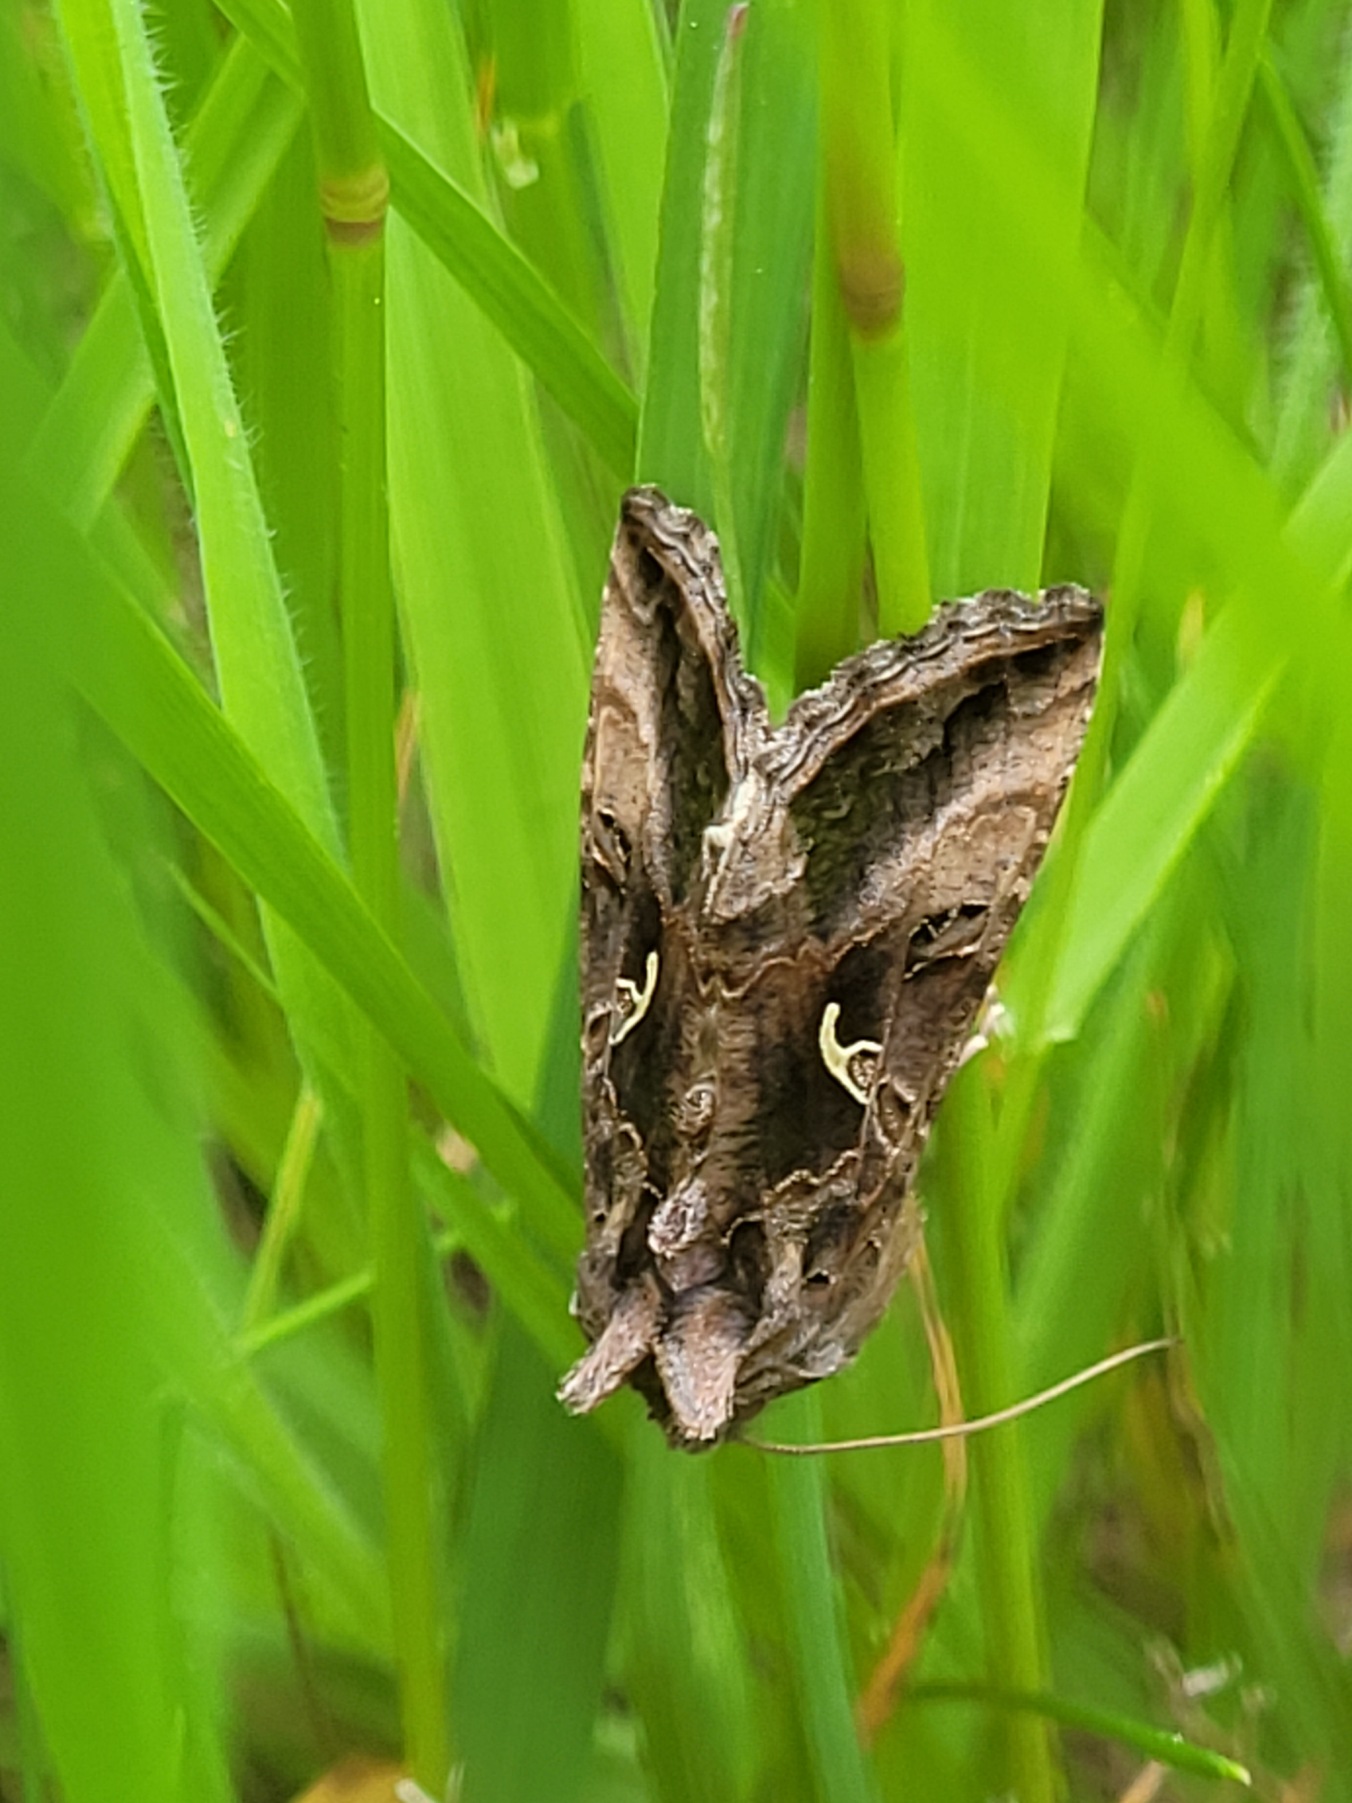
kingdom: Animalia
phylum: Arthropoda
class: Insecta
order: Lepidoptera
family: Noctuidae
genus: Autographa
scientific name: Autographa gamma
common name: Gammaugle
